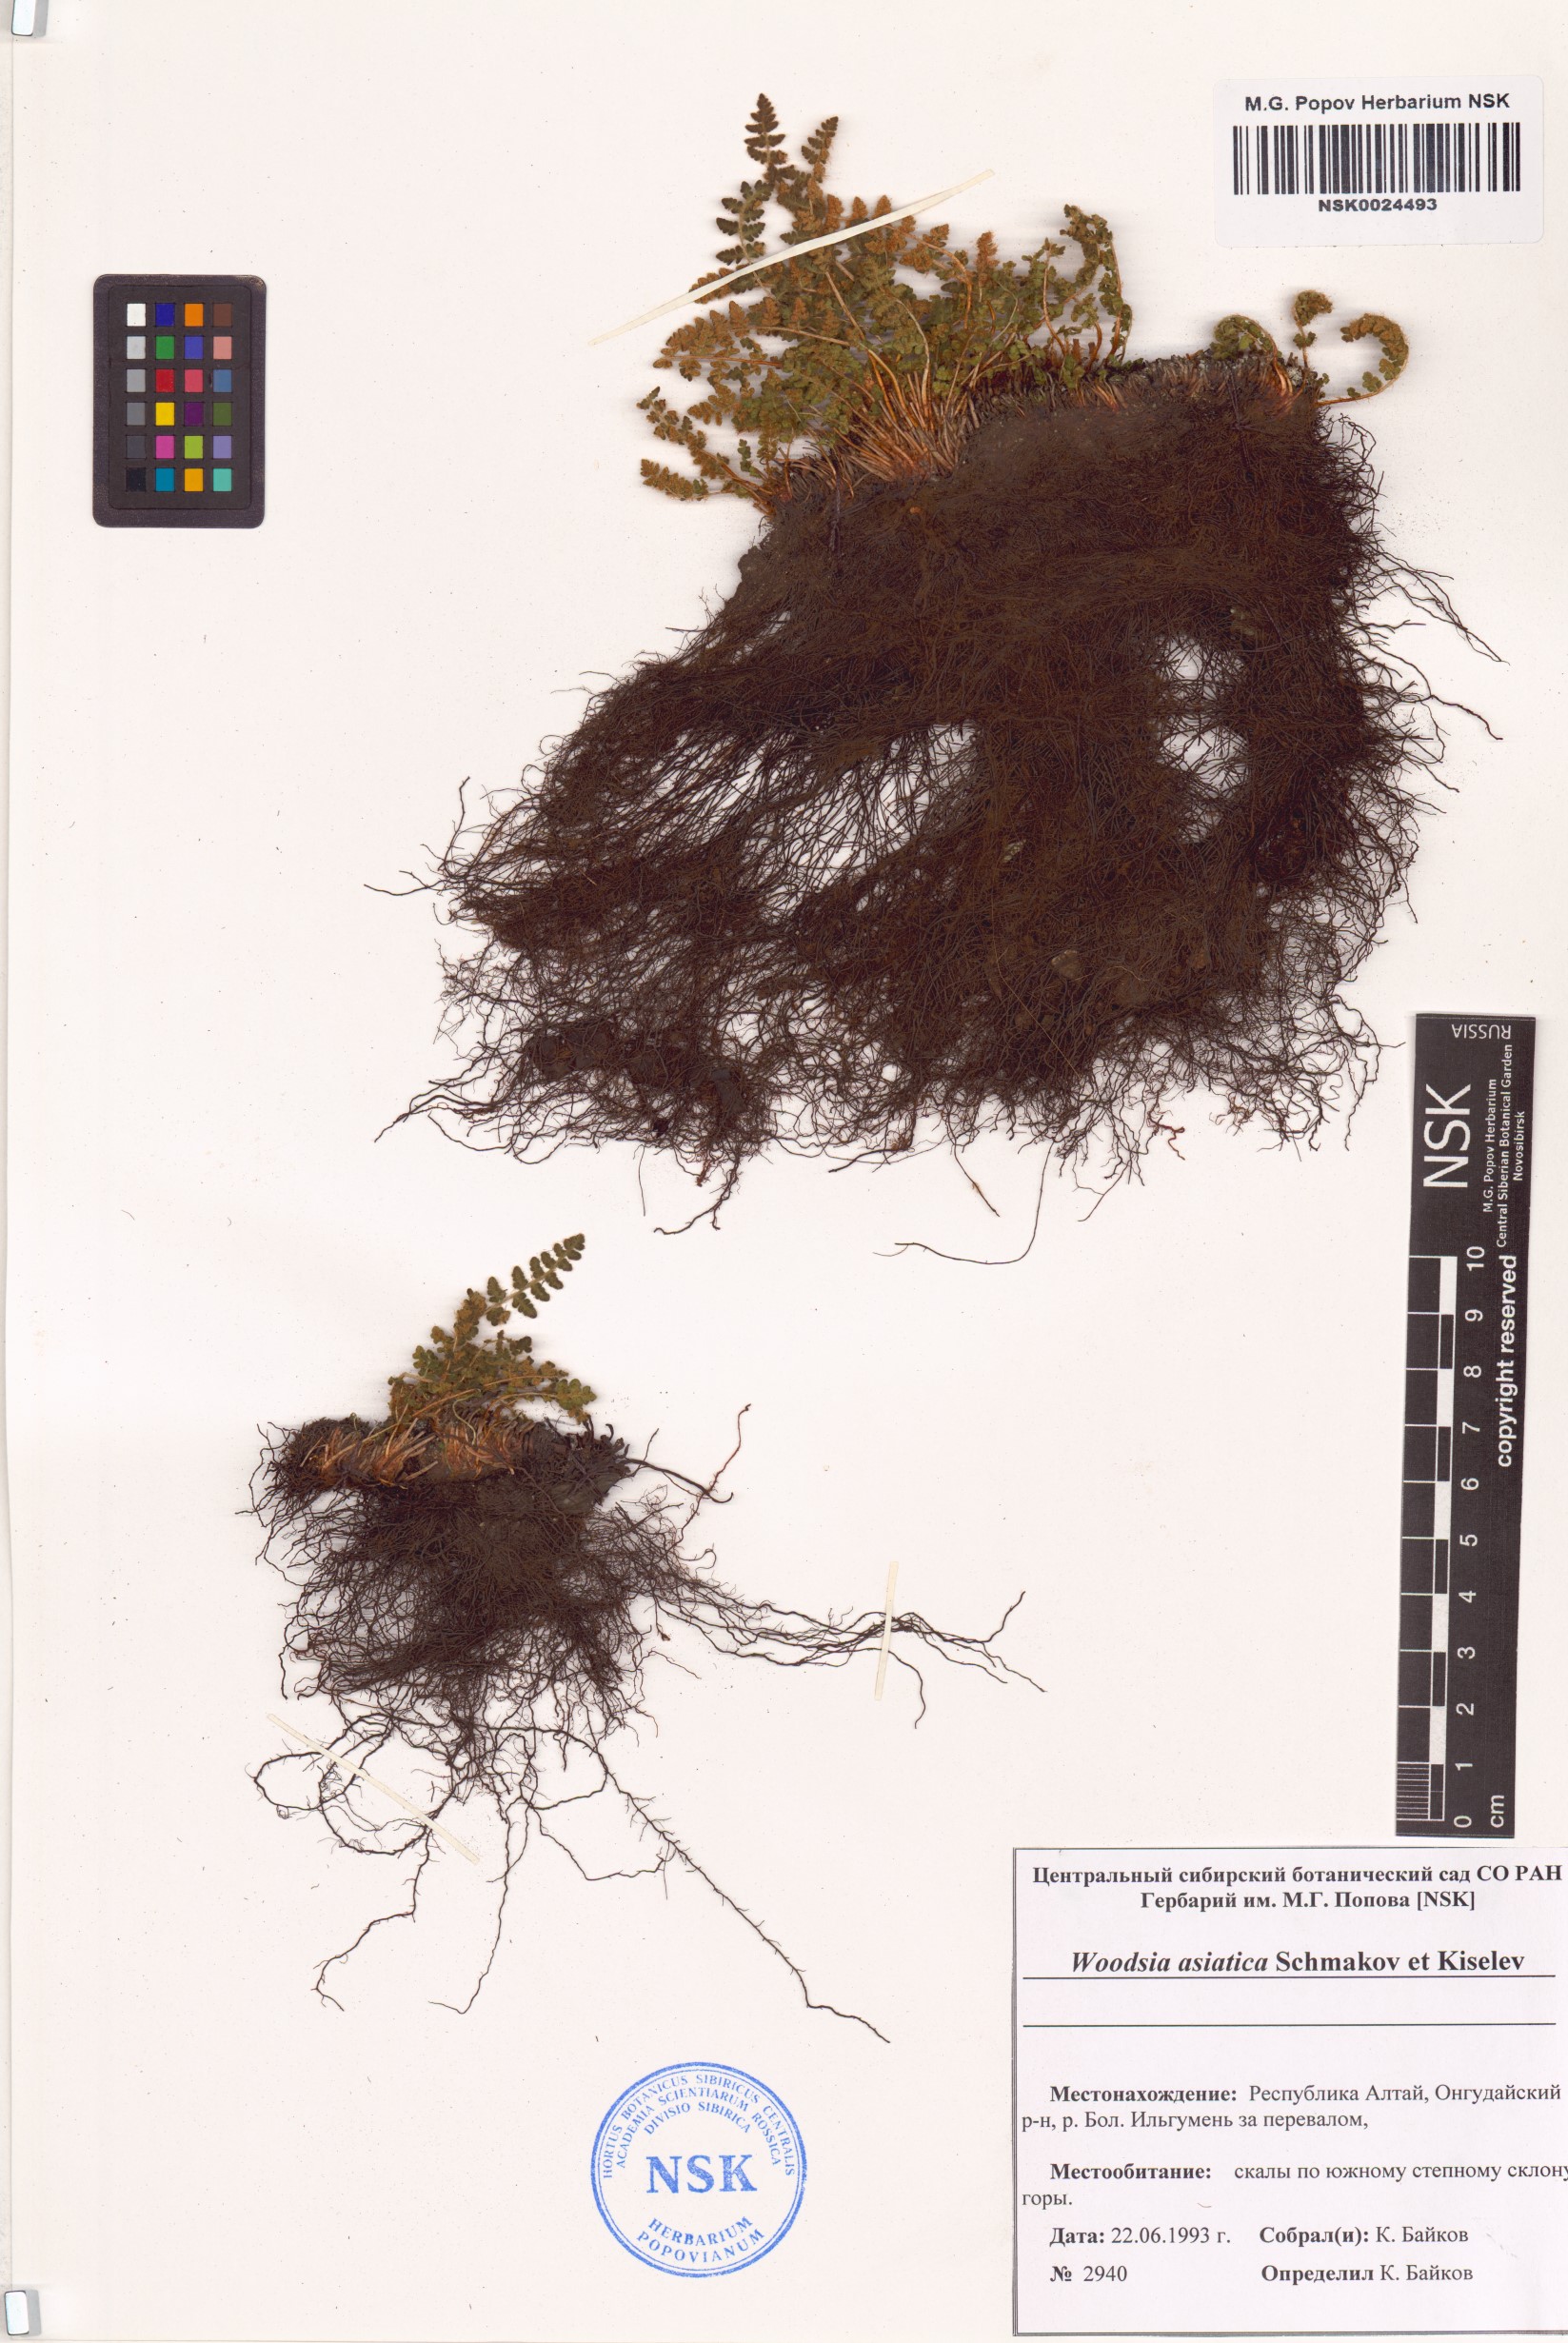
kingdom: Plantae
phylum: Tracheophyta
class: Polypodiopsida
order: Polypodiales
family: Woodsiaceae
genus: Woodsia
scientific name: Woodsia asiatica
